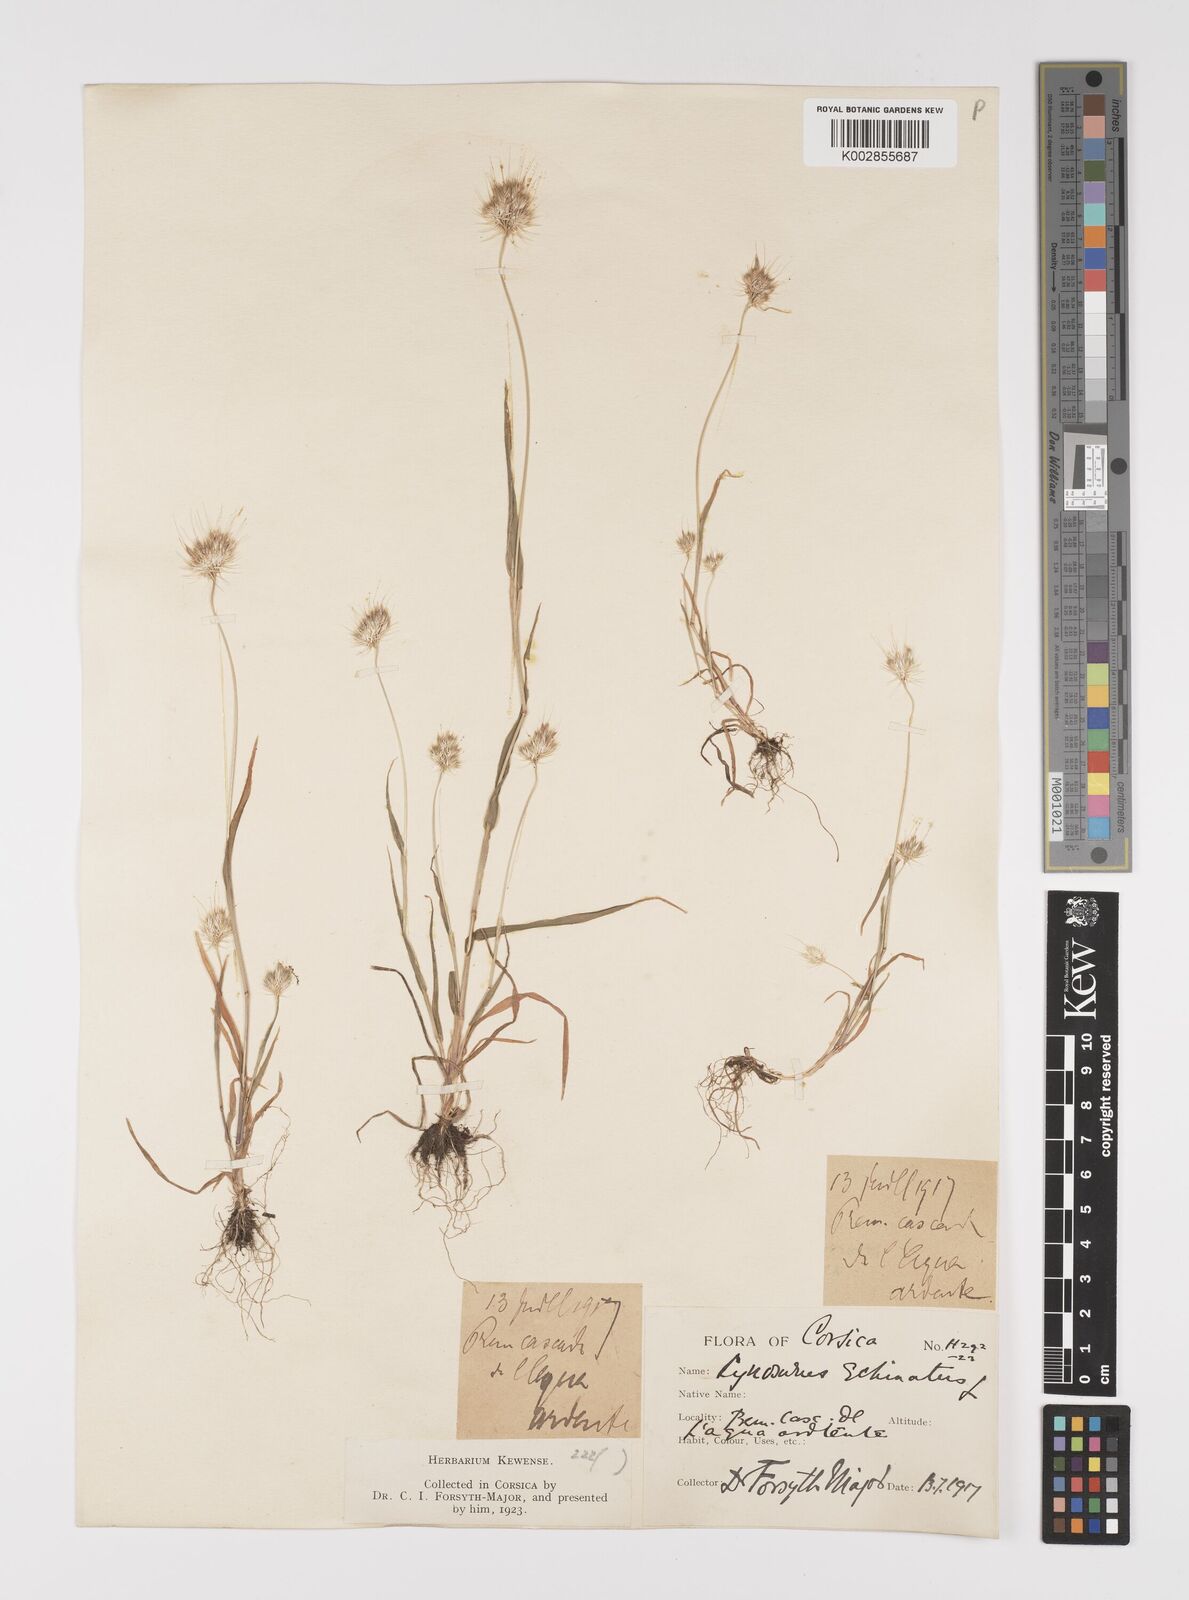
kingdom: Plantae
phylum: Tracheophyta
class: Liliopsida
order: Poales
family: Poaceae
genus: Cynosurus
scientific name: Cynosurus echinatus
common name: Rough dog's-tail
